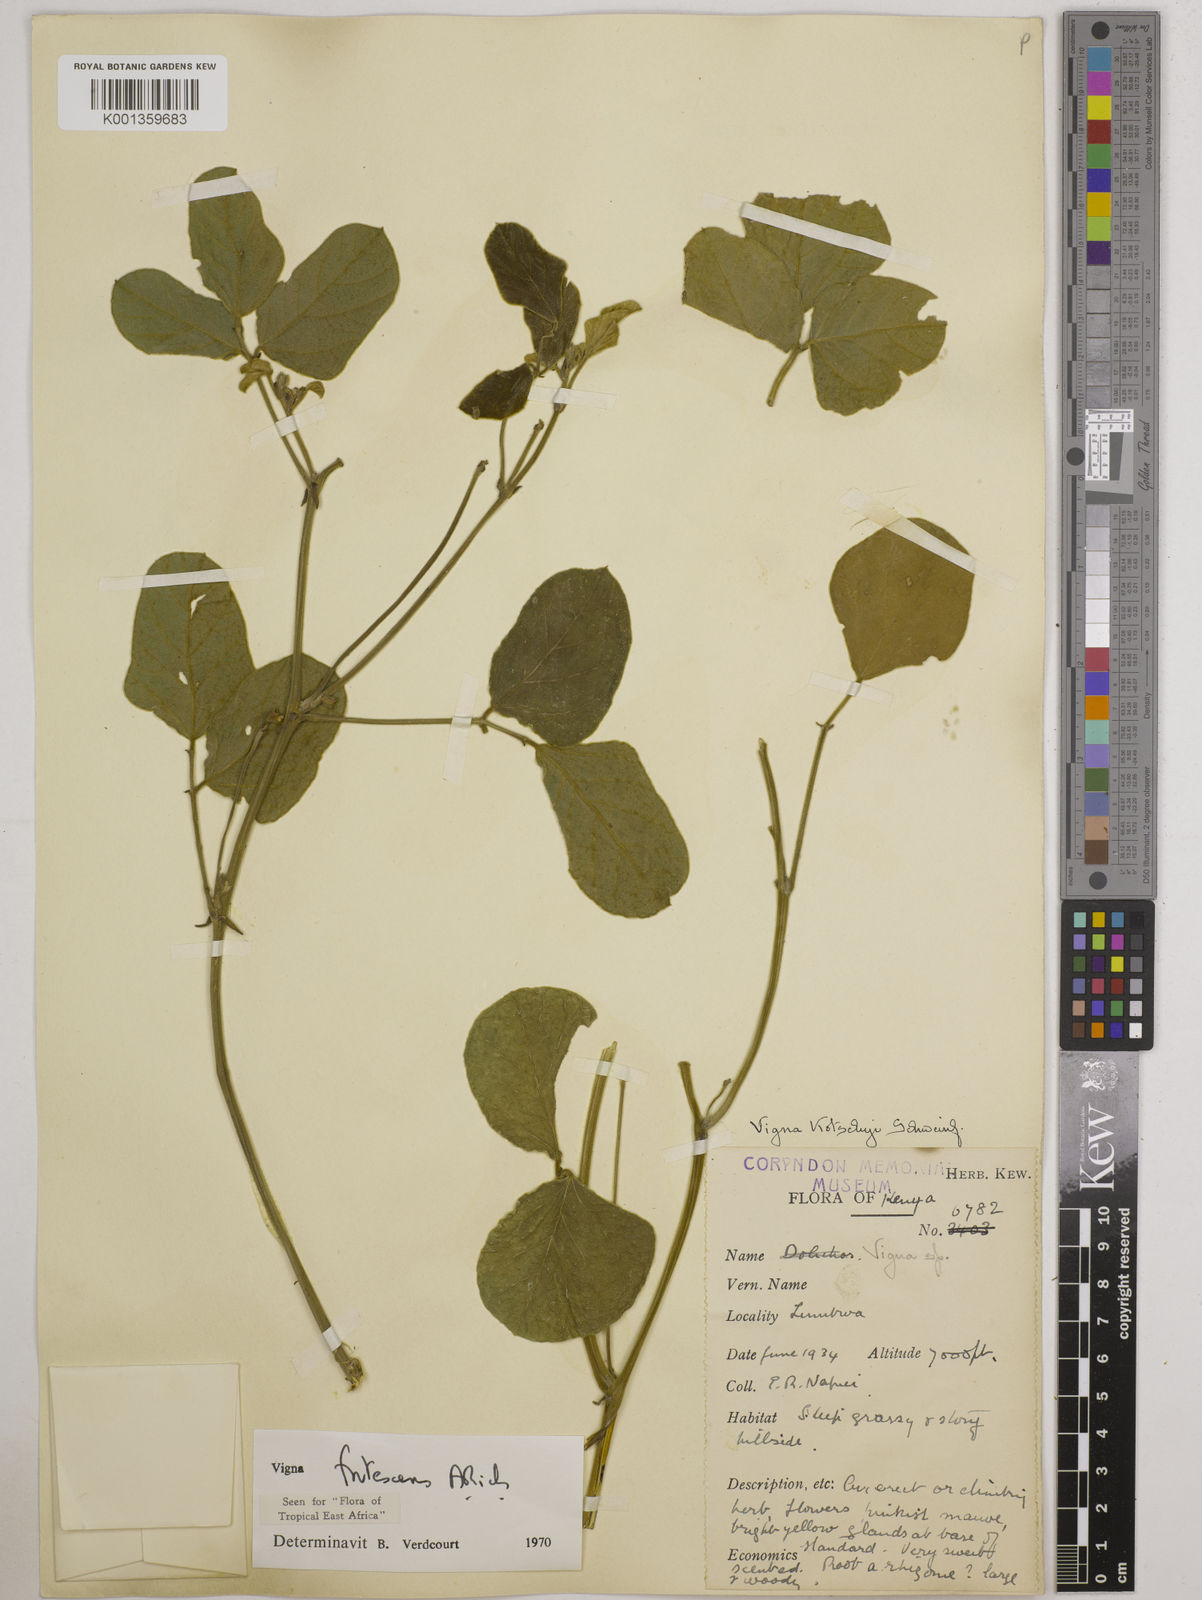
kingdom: Plantae
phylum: Tracheophyta
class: Magnoliopsida
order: Fabales
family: Fabaceae
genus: Vigna
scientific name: Vigna frutescens
